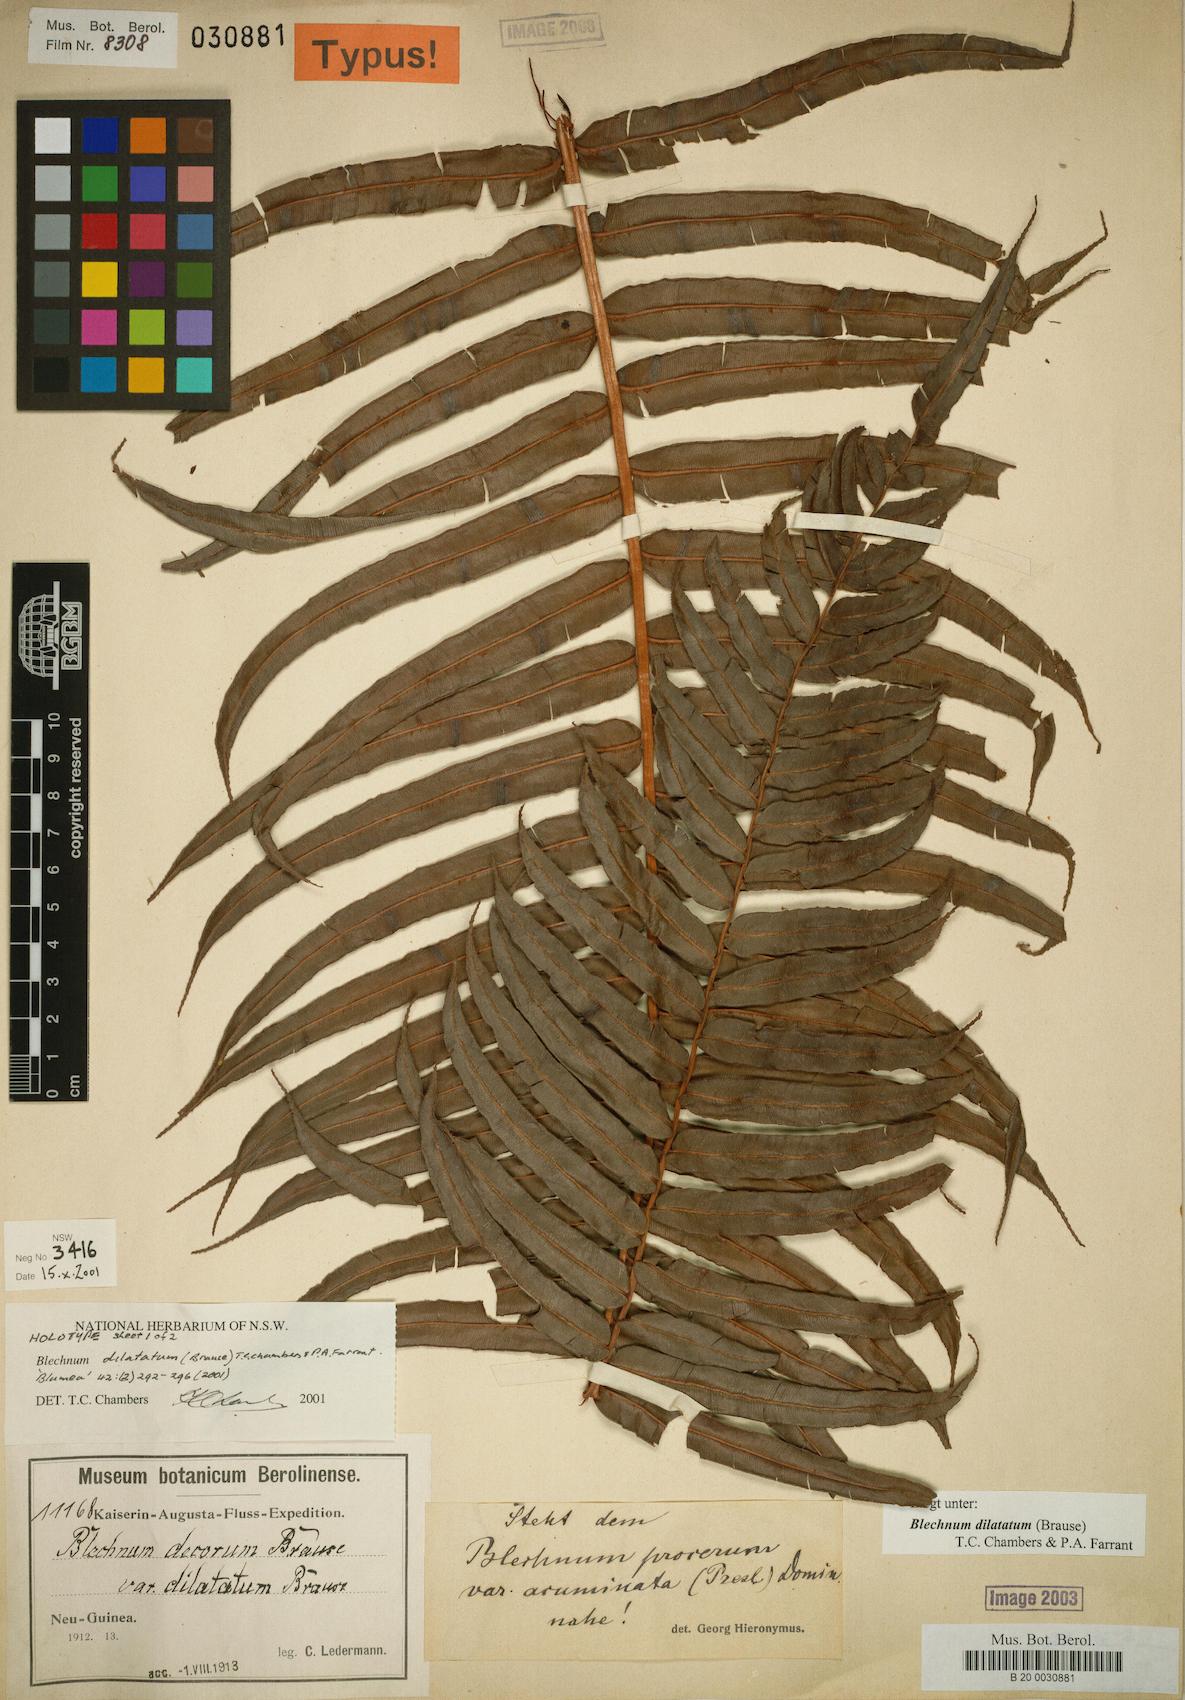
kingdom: Plantae
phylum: Tracheophyta
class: Polypodiopsida
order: Polypodiales
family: Blechnaceae
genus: Parablechnum
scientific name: Parablechnum dilatatum
